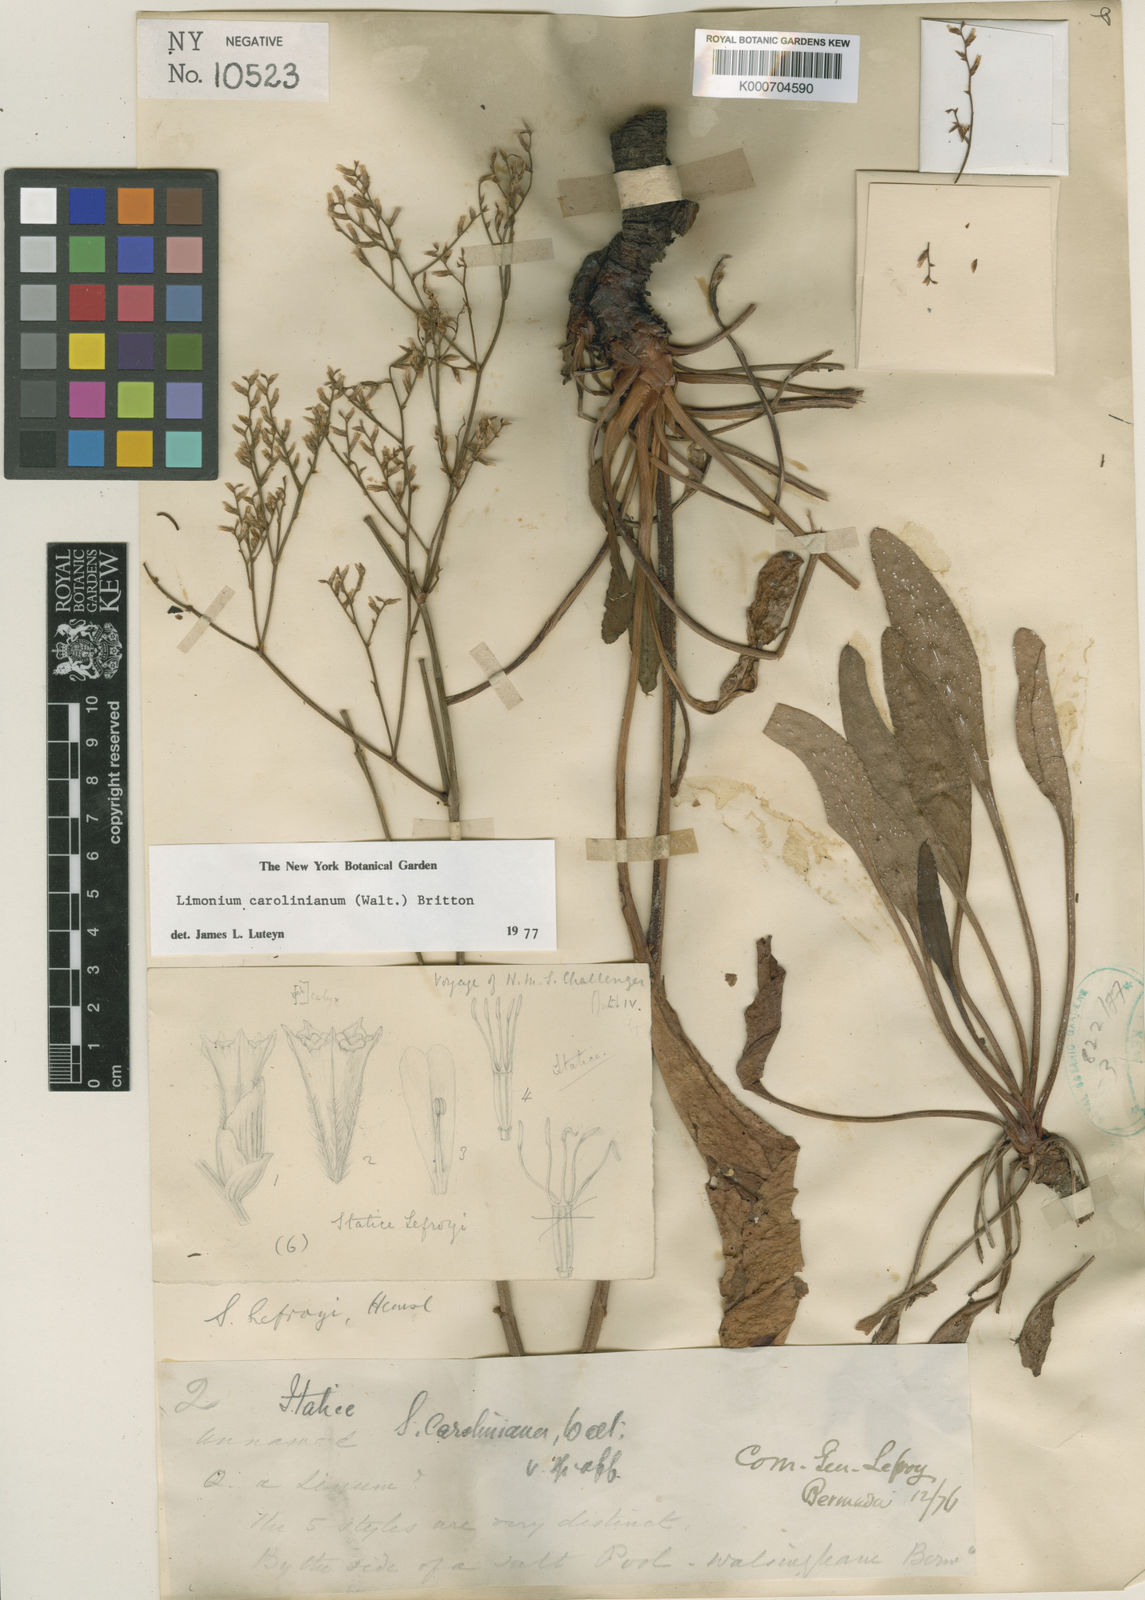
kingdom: Plantae
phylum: Tracheophyta
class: Magnoliopsida
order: Caryophyllales
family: Plumbaginaceae
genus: Limonium
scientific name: Limonium carolinianum
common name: Carolina sea lavender
